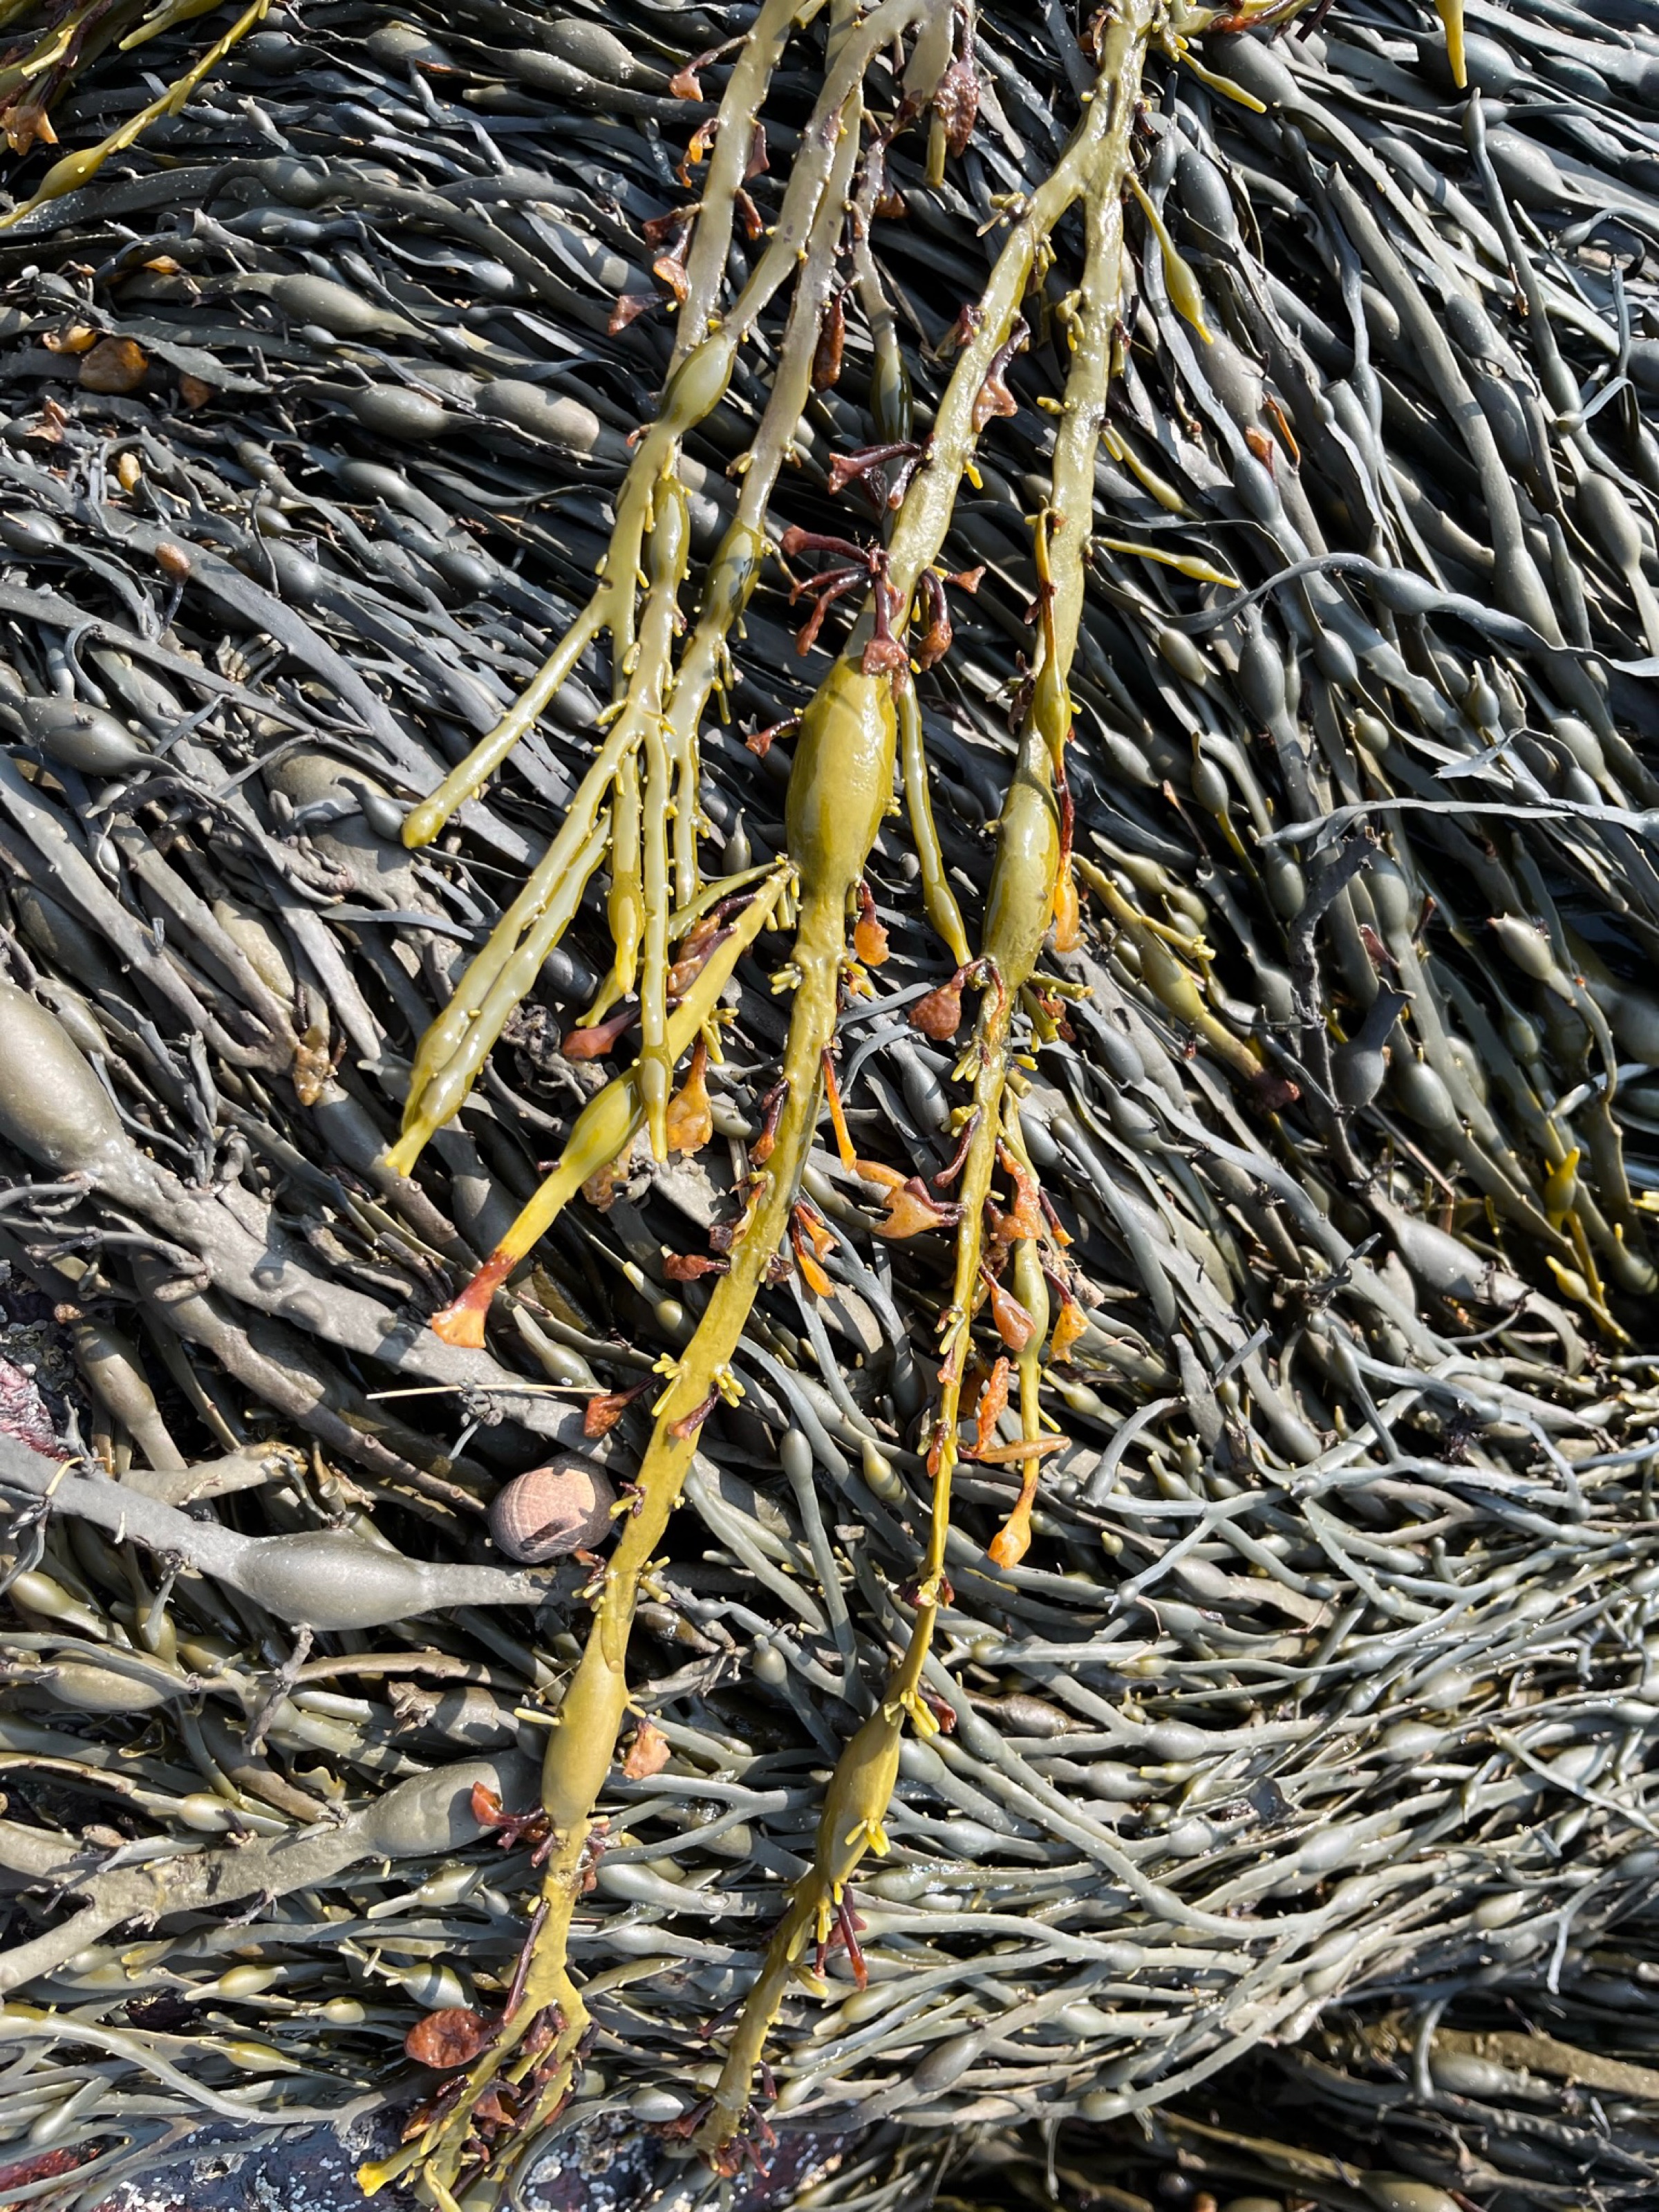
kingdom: Chromista
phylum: Ochrophyta
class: Phaeophyceae
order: Fucales
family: Fucaceae
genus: Ascophyllum
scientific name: Ascophyllum nodosum
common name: Rockweed
